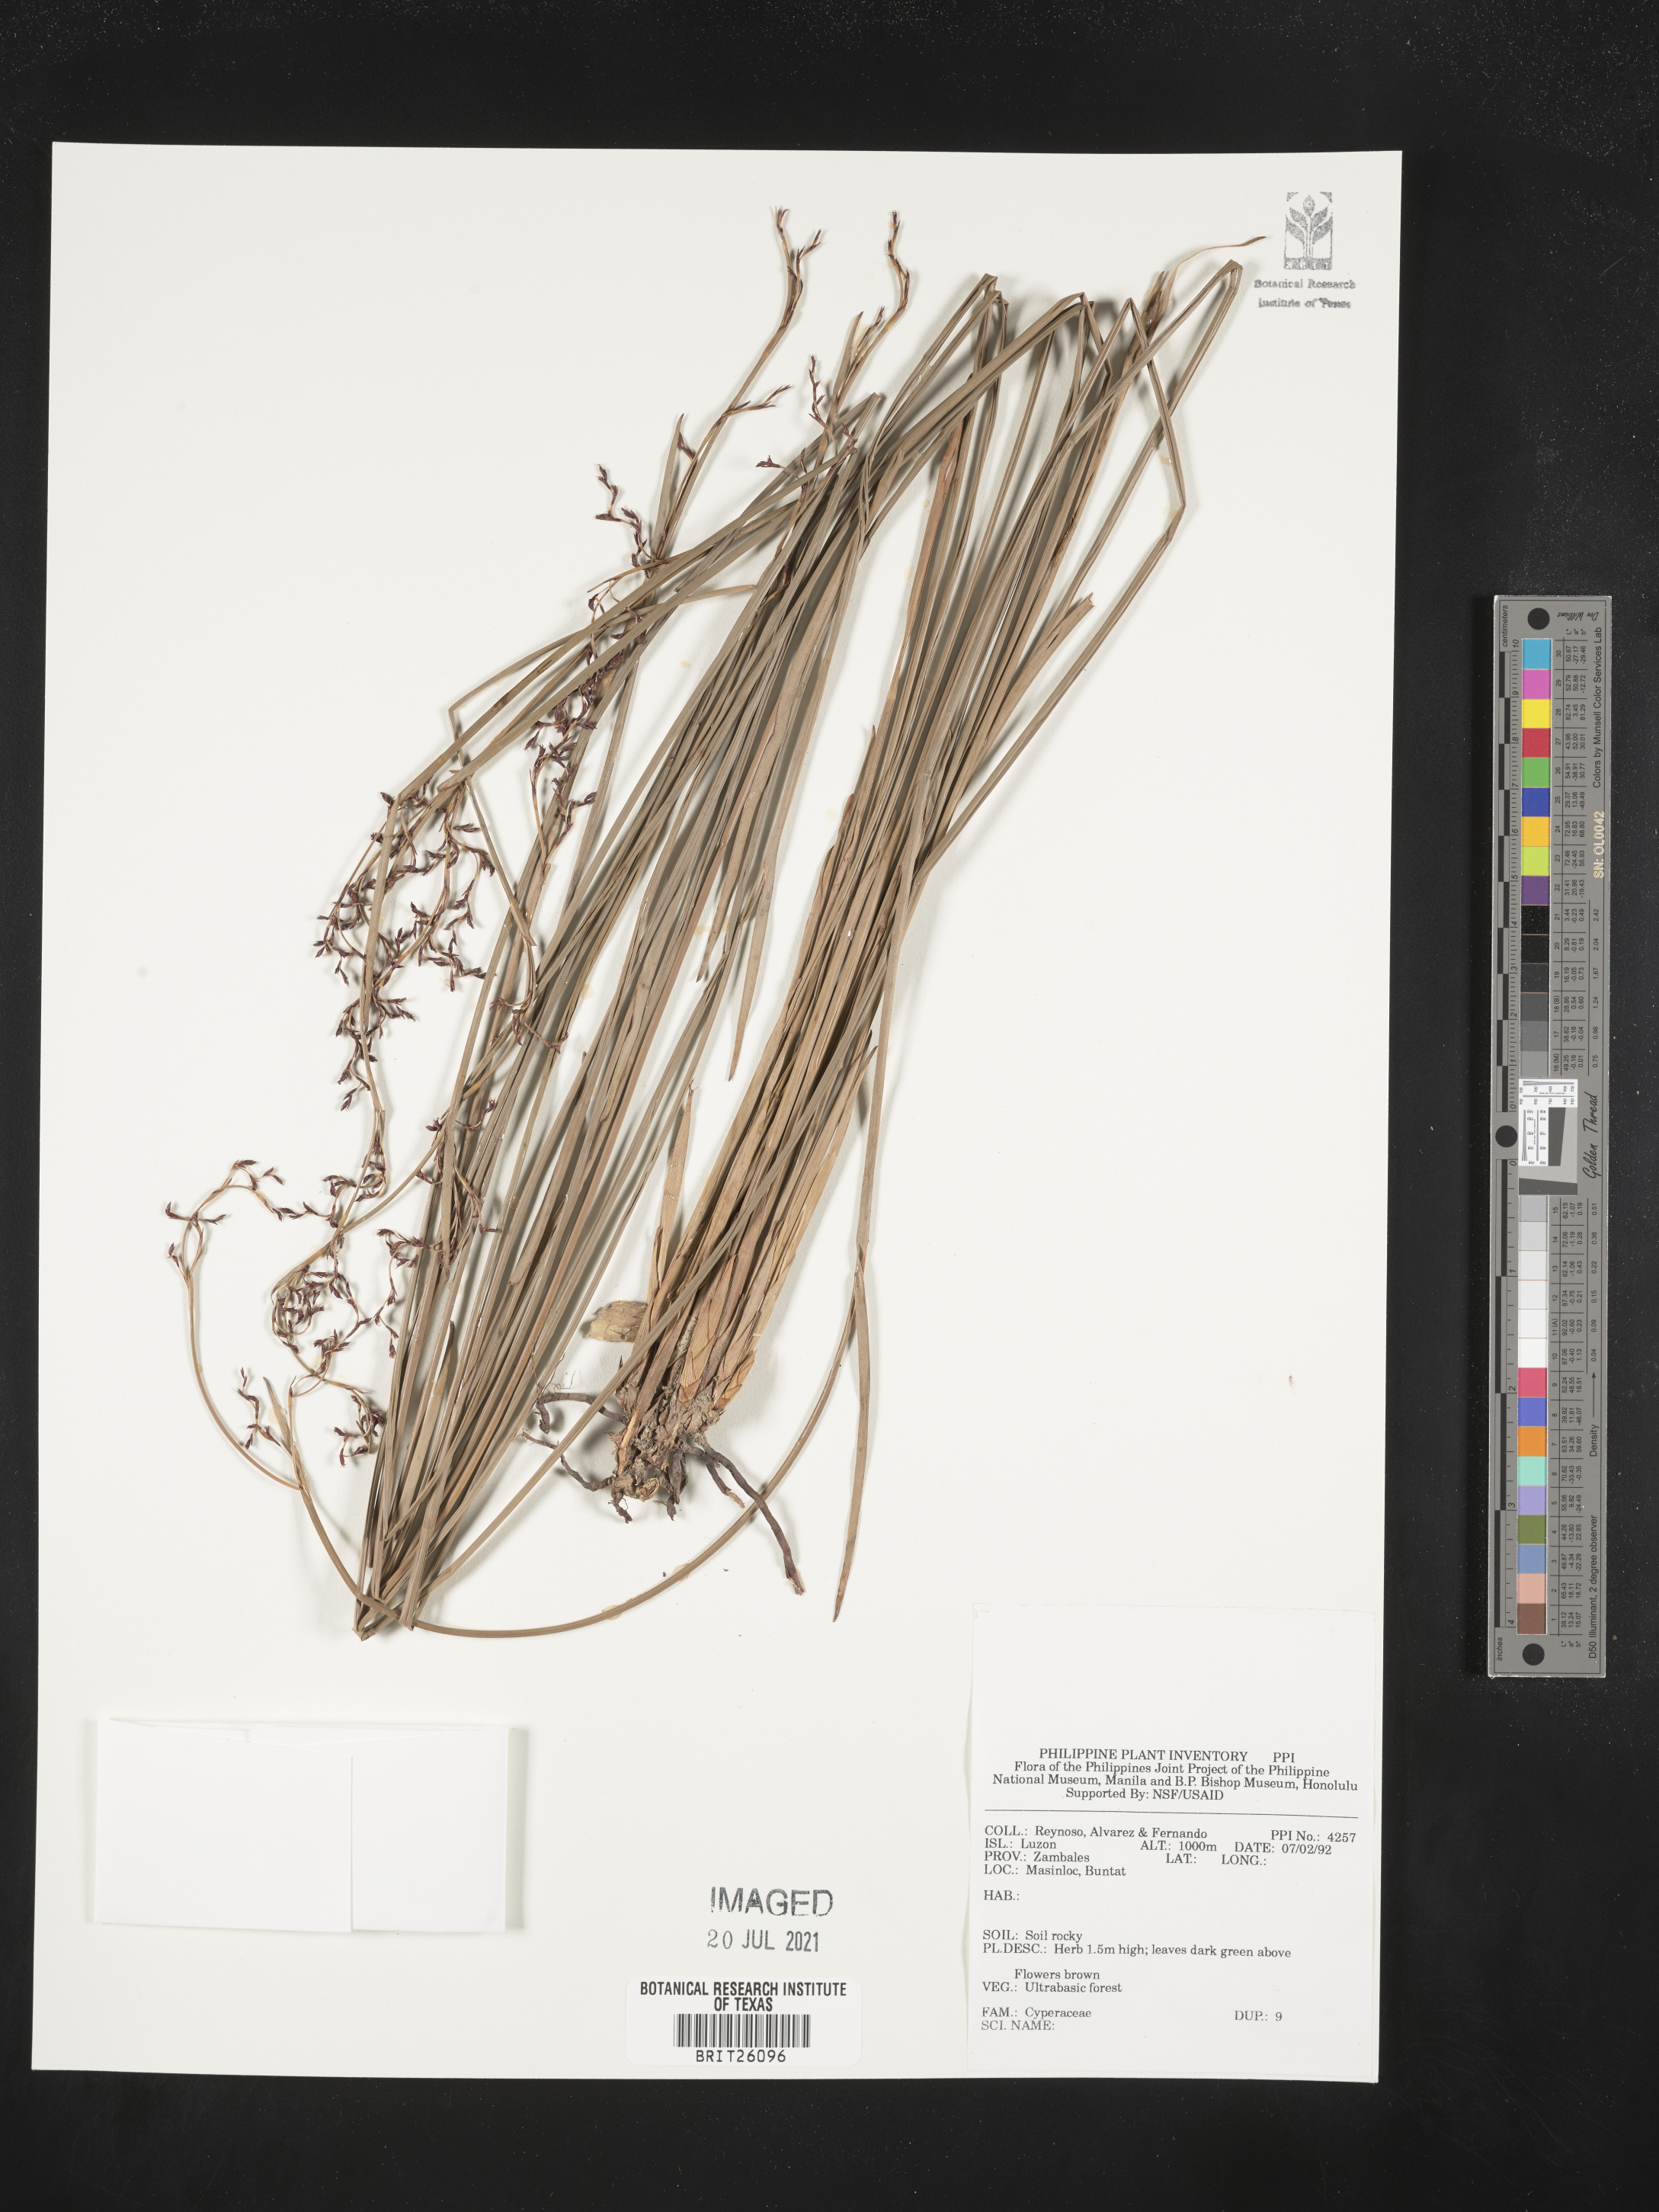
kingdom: Plantae
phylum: Tracheophyta
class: Liliopsida
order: Poales
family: Cyperaceae
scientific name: Cyperaceae
